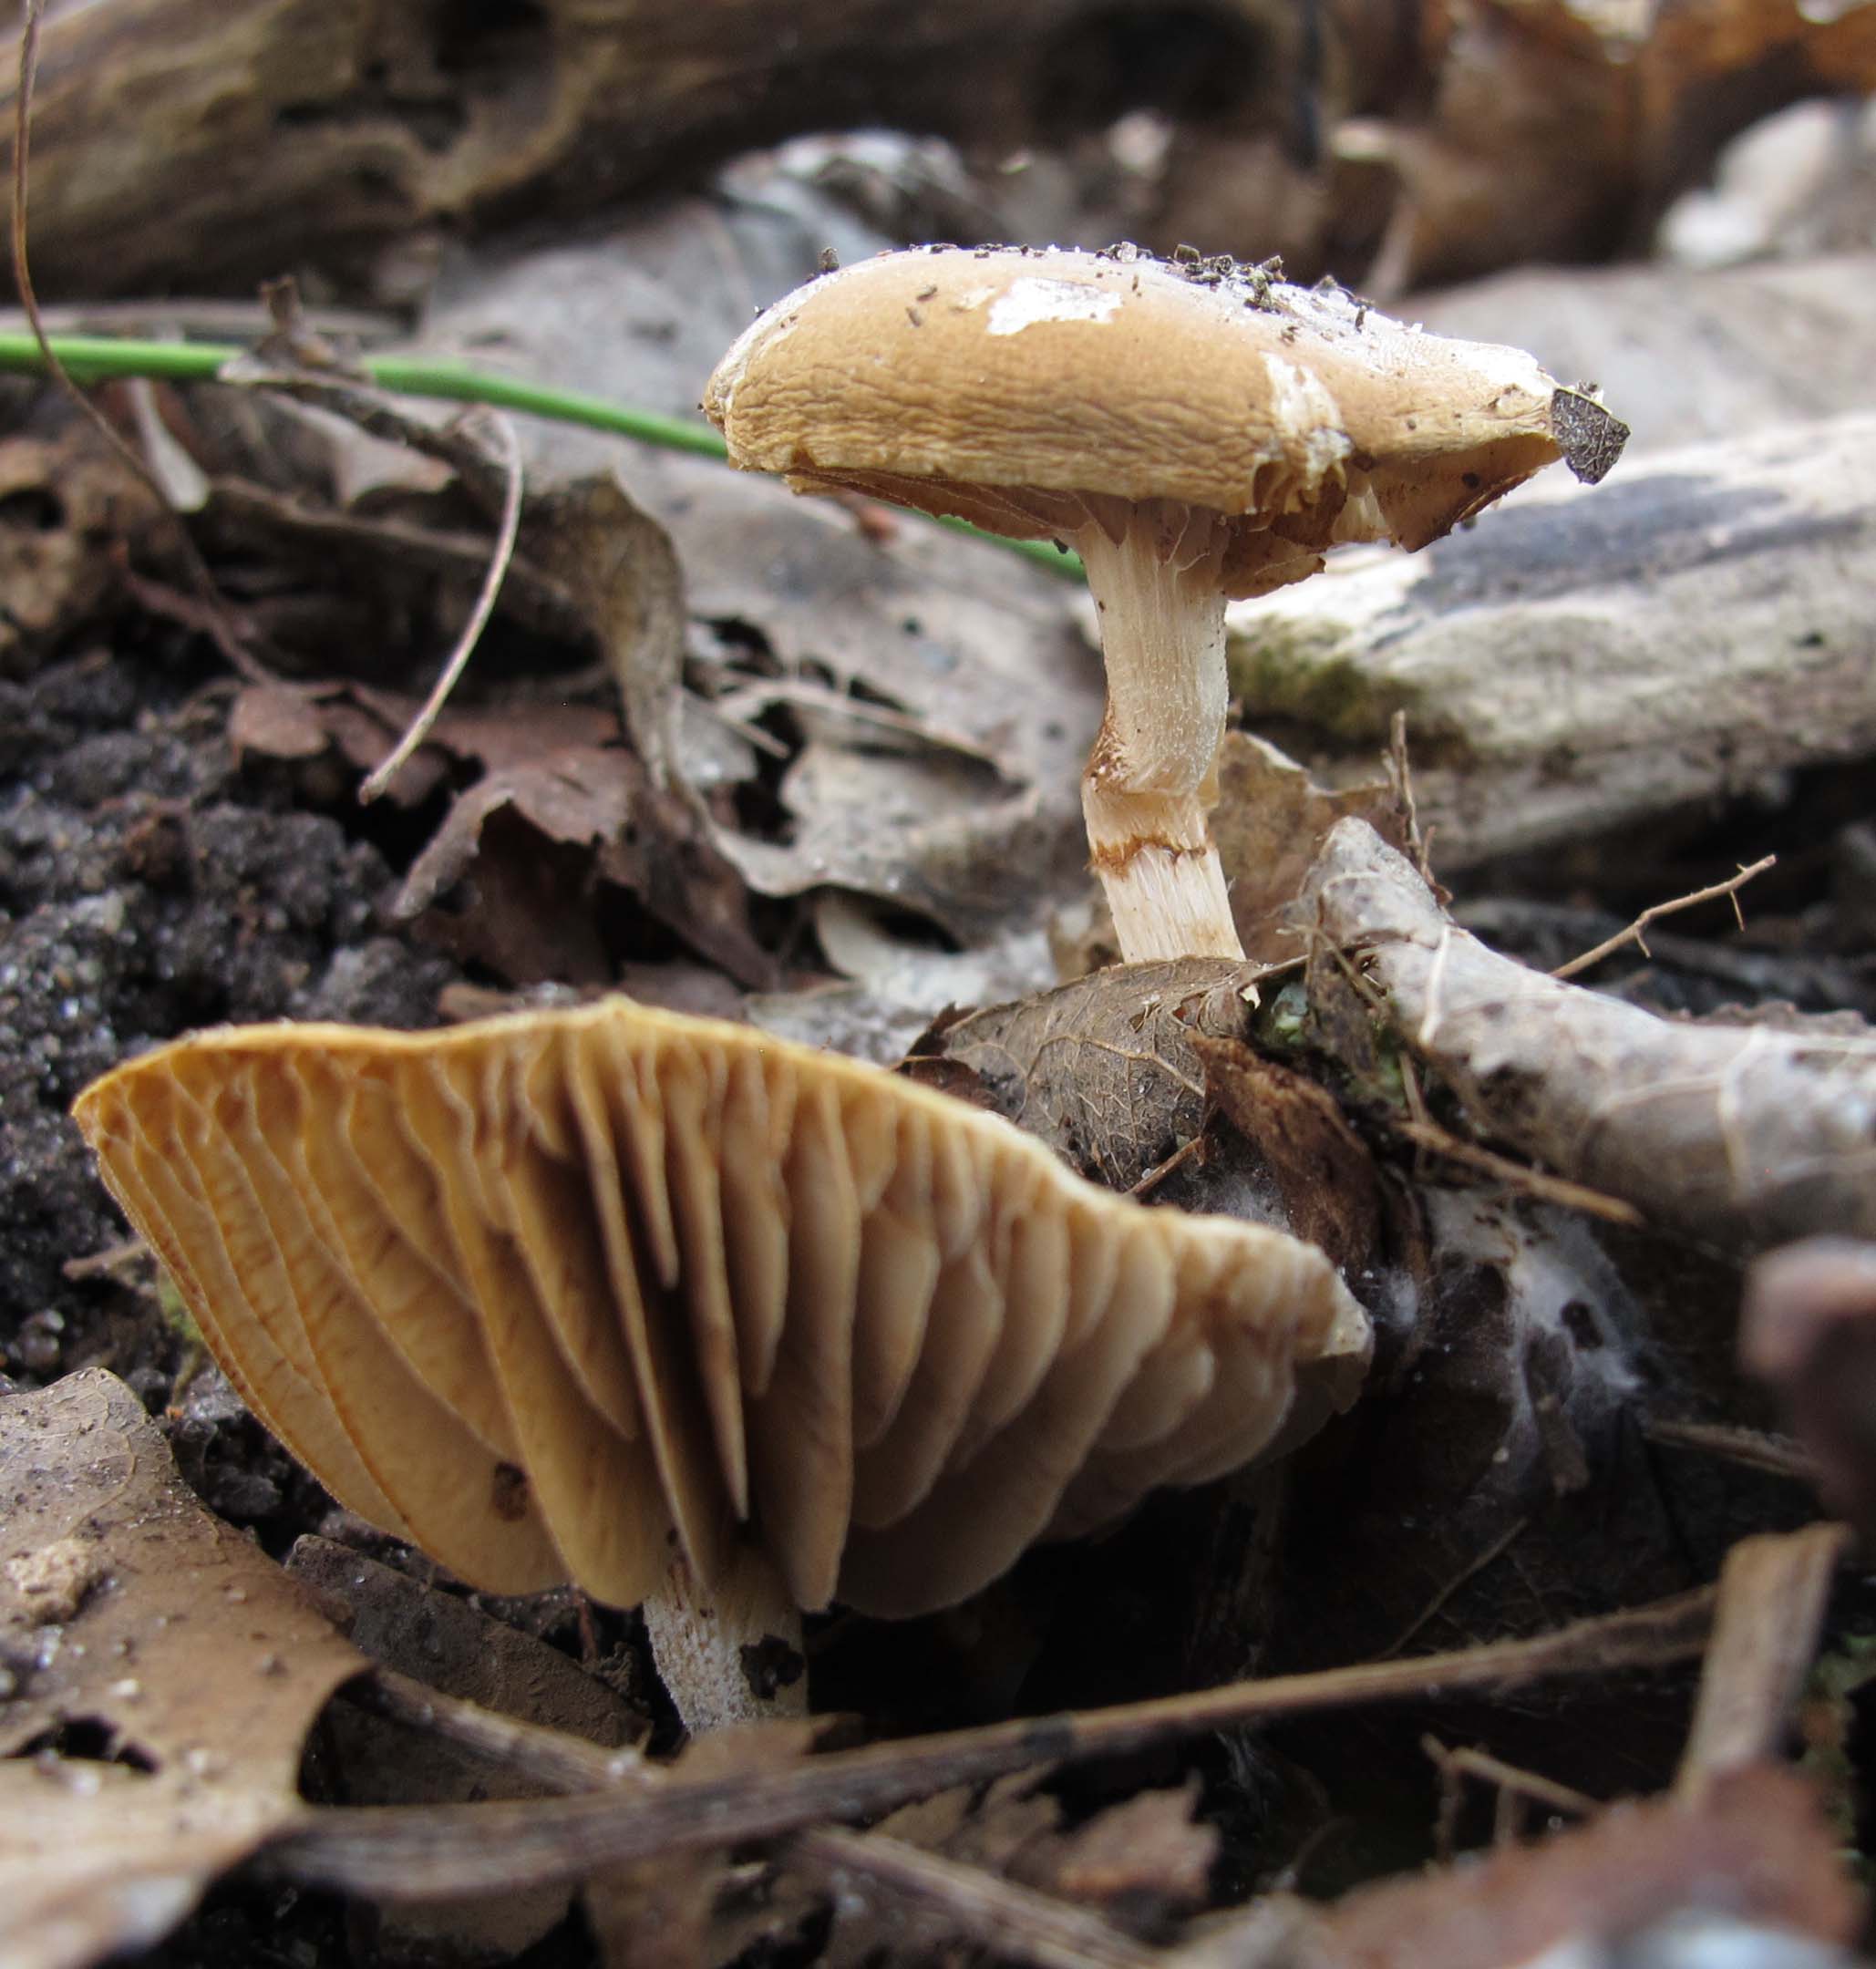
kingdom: Fungi
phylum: Basidiomycota
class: Agaricomycetes
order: Agaricales
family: Strophariaceae
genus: Meottomyces
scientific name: Meottomyces dissimulans
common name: smudsigbrun vinterskælhat
